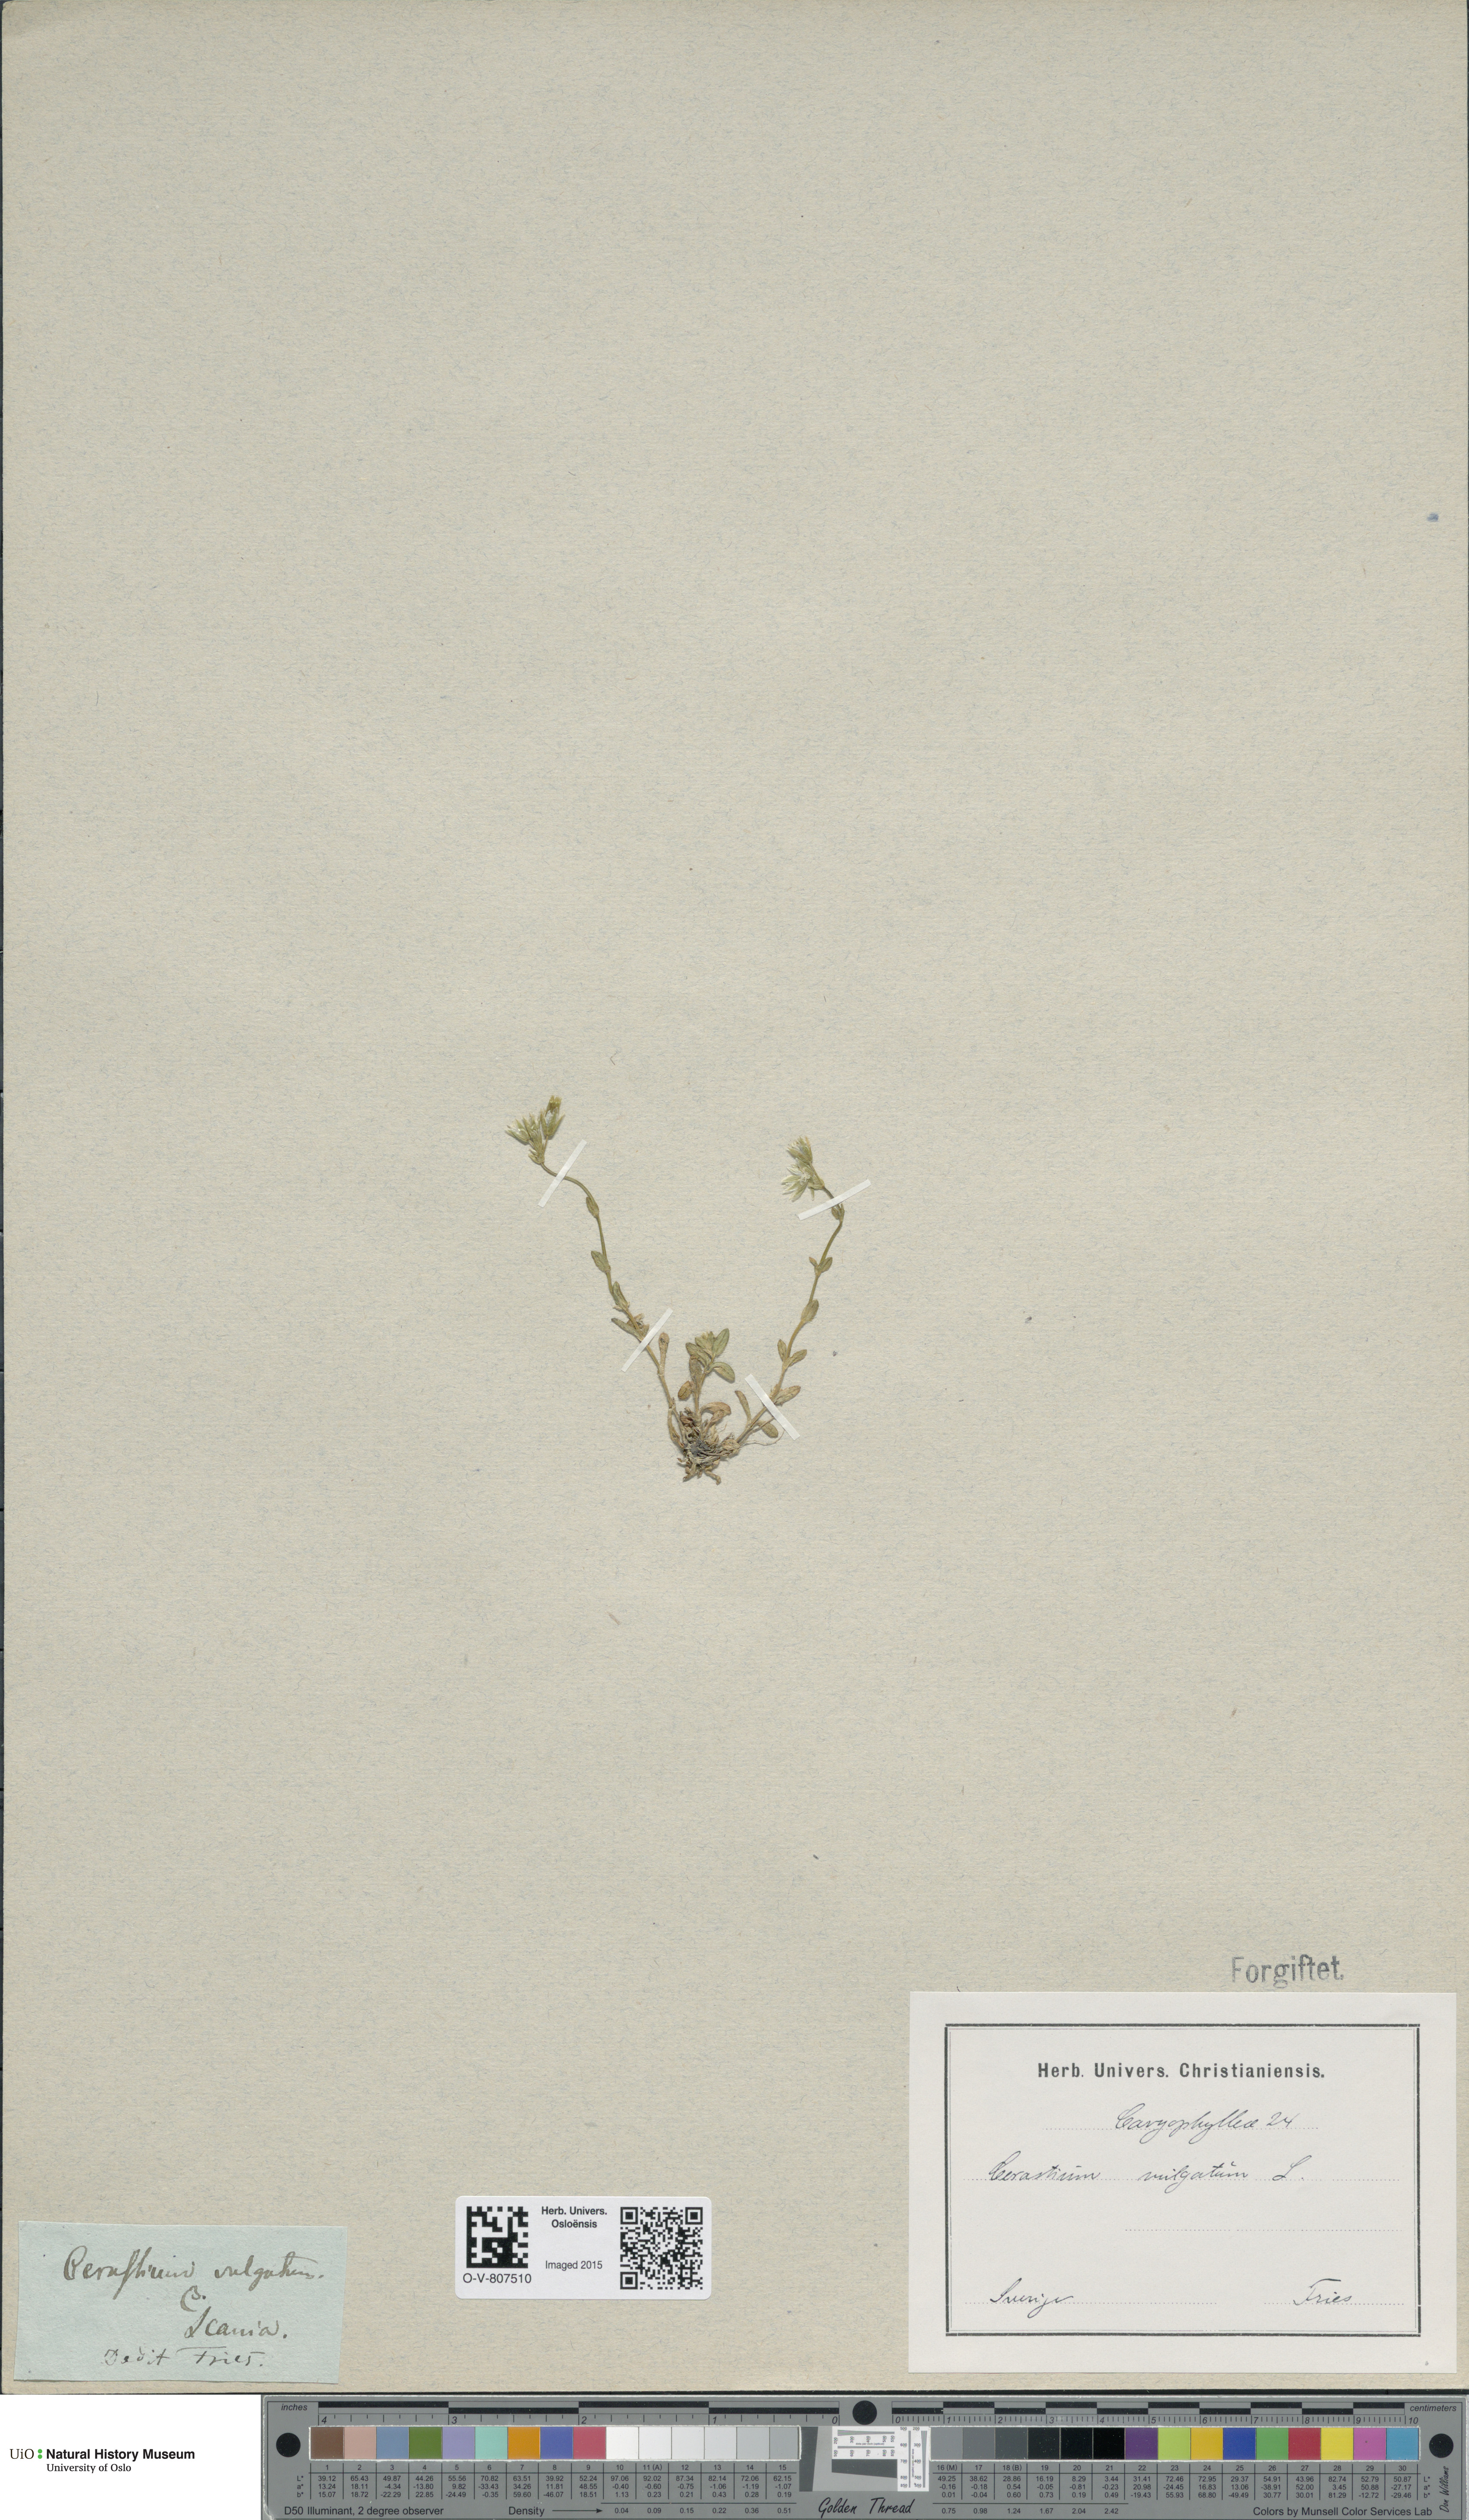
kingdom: Plantae
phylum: Tracheophyta
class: Magnoliopsida
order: Caryophyllales
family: Caryophyllaceae
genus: Cerastium
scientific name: Cerastium holosteoides
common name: Big chickweed
